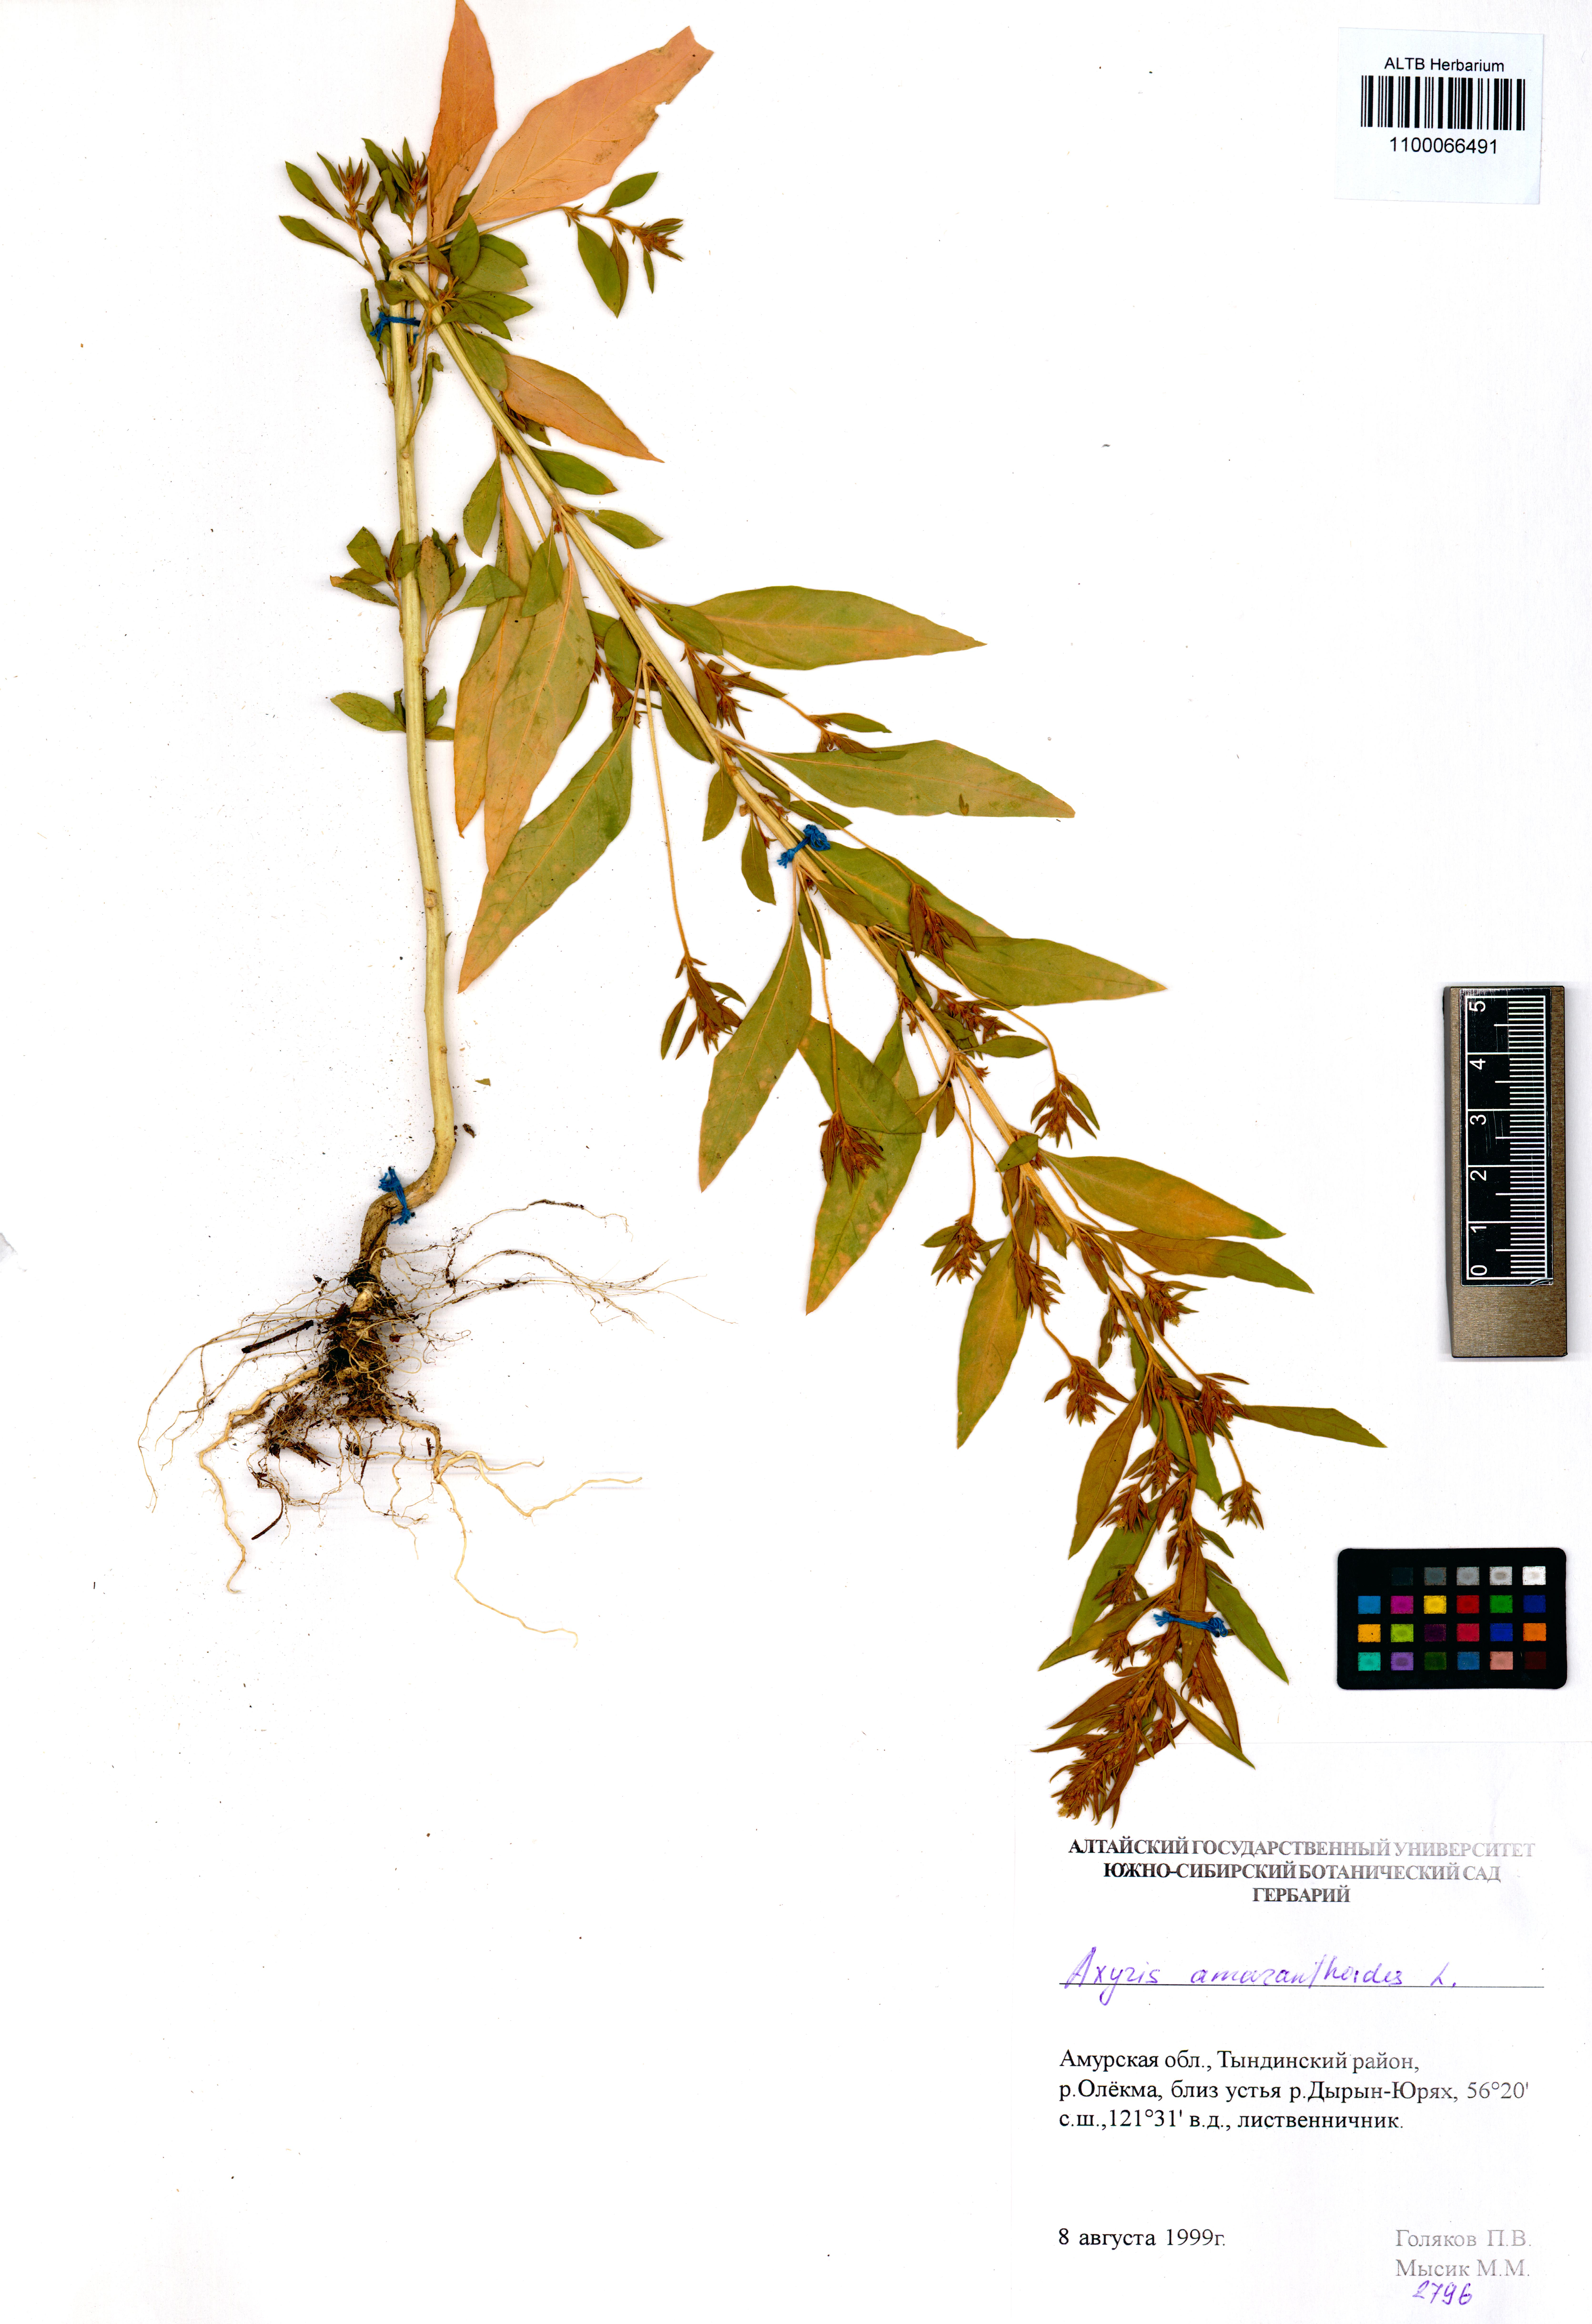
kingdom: Plantae
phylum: Tracheophyta
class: Magnoliopsida
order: Caryophyllales
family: Amaranthaceae
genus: Axyris
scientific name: Axyris amaranthoides
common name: Russian pigweed
